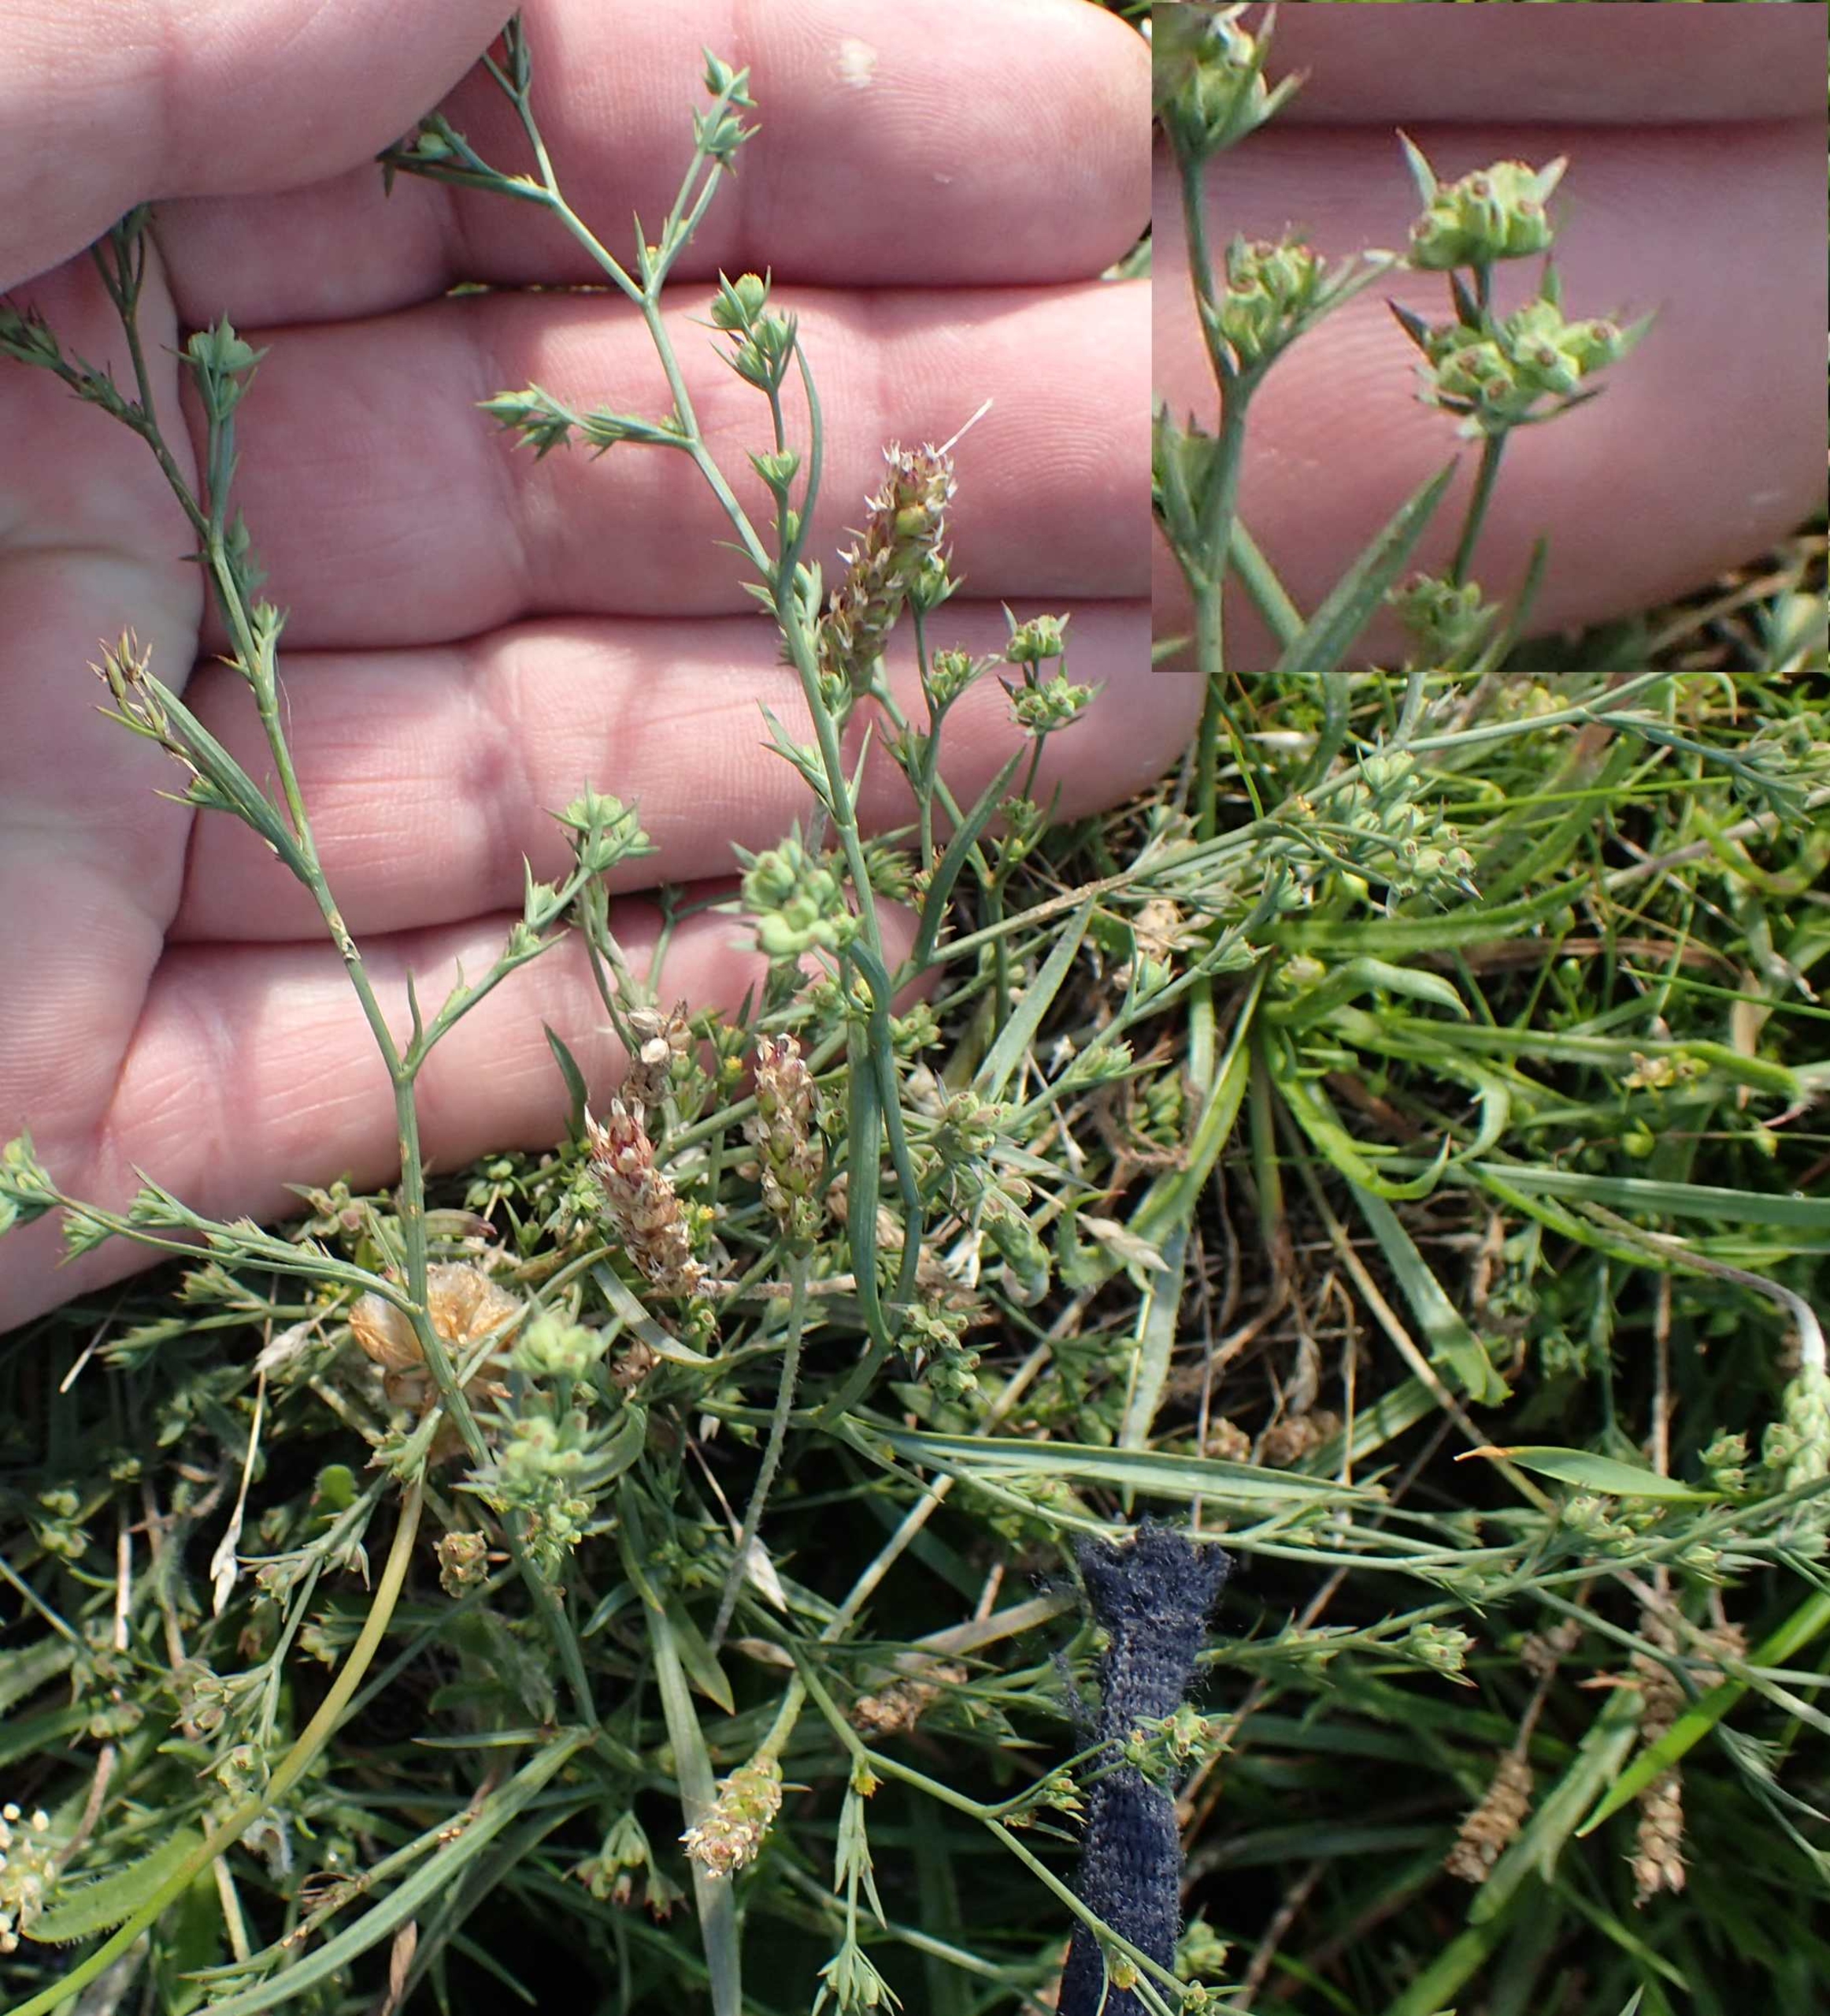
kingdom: Plantae
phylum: Tracheophyta
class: Magnoliopsida
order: Apiales
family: Apiaceae
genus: Bupleurum
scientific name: Bupleurum tenuissimum
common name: Smalbladet hareøre
